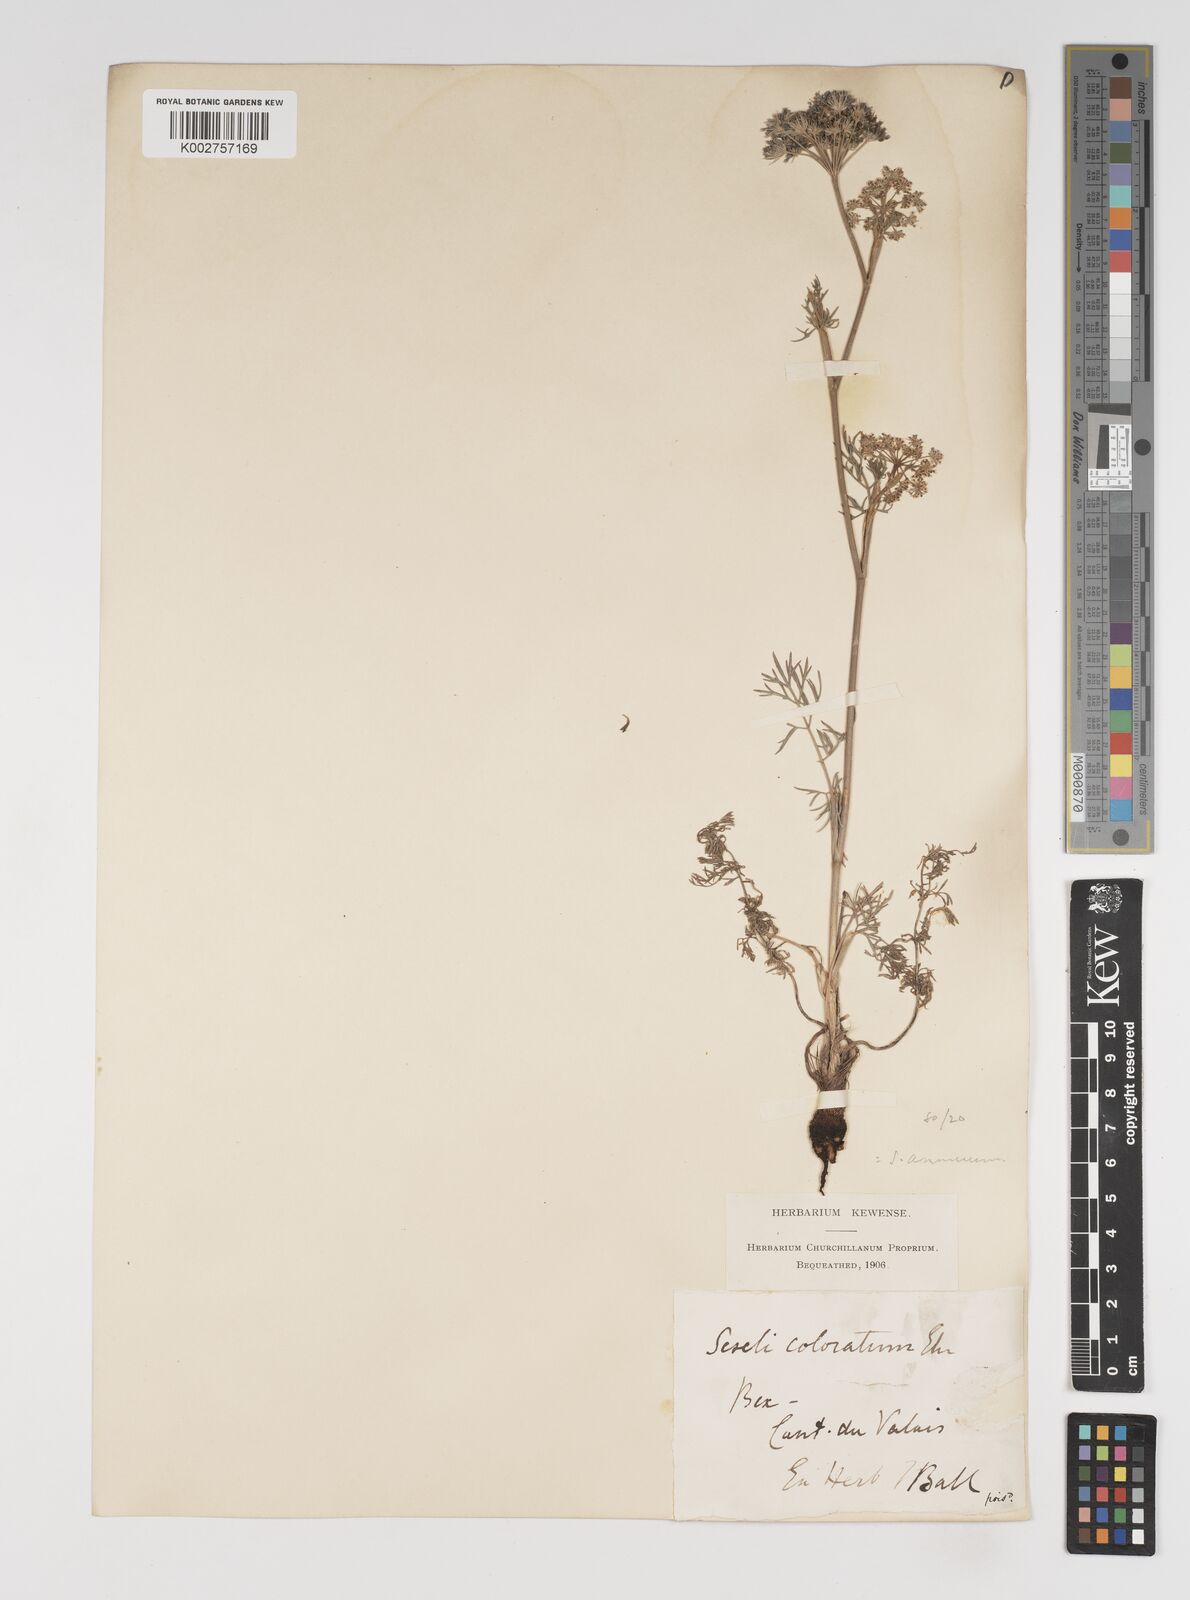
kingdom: Plantae
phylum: Tracheophyta
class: Magnoliopsida
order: Apiales
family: Apiaceae
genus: Seseli
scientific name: Seseli annuum
